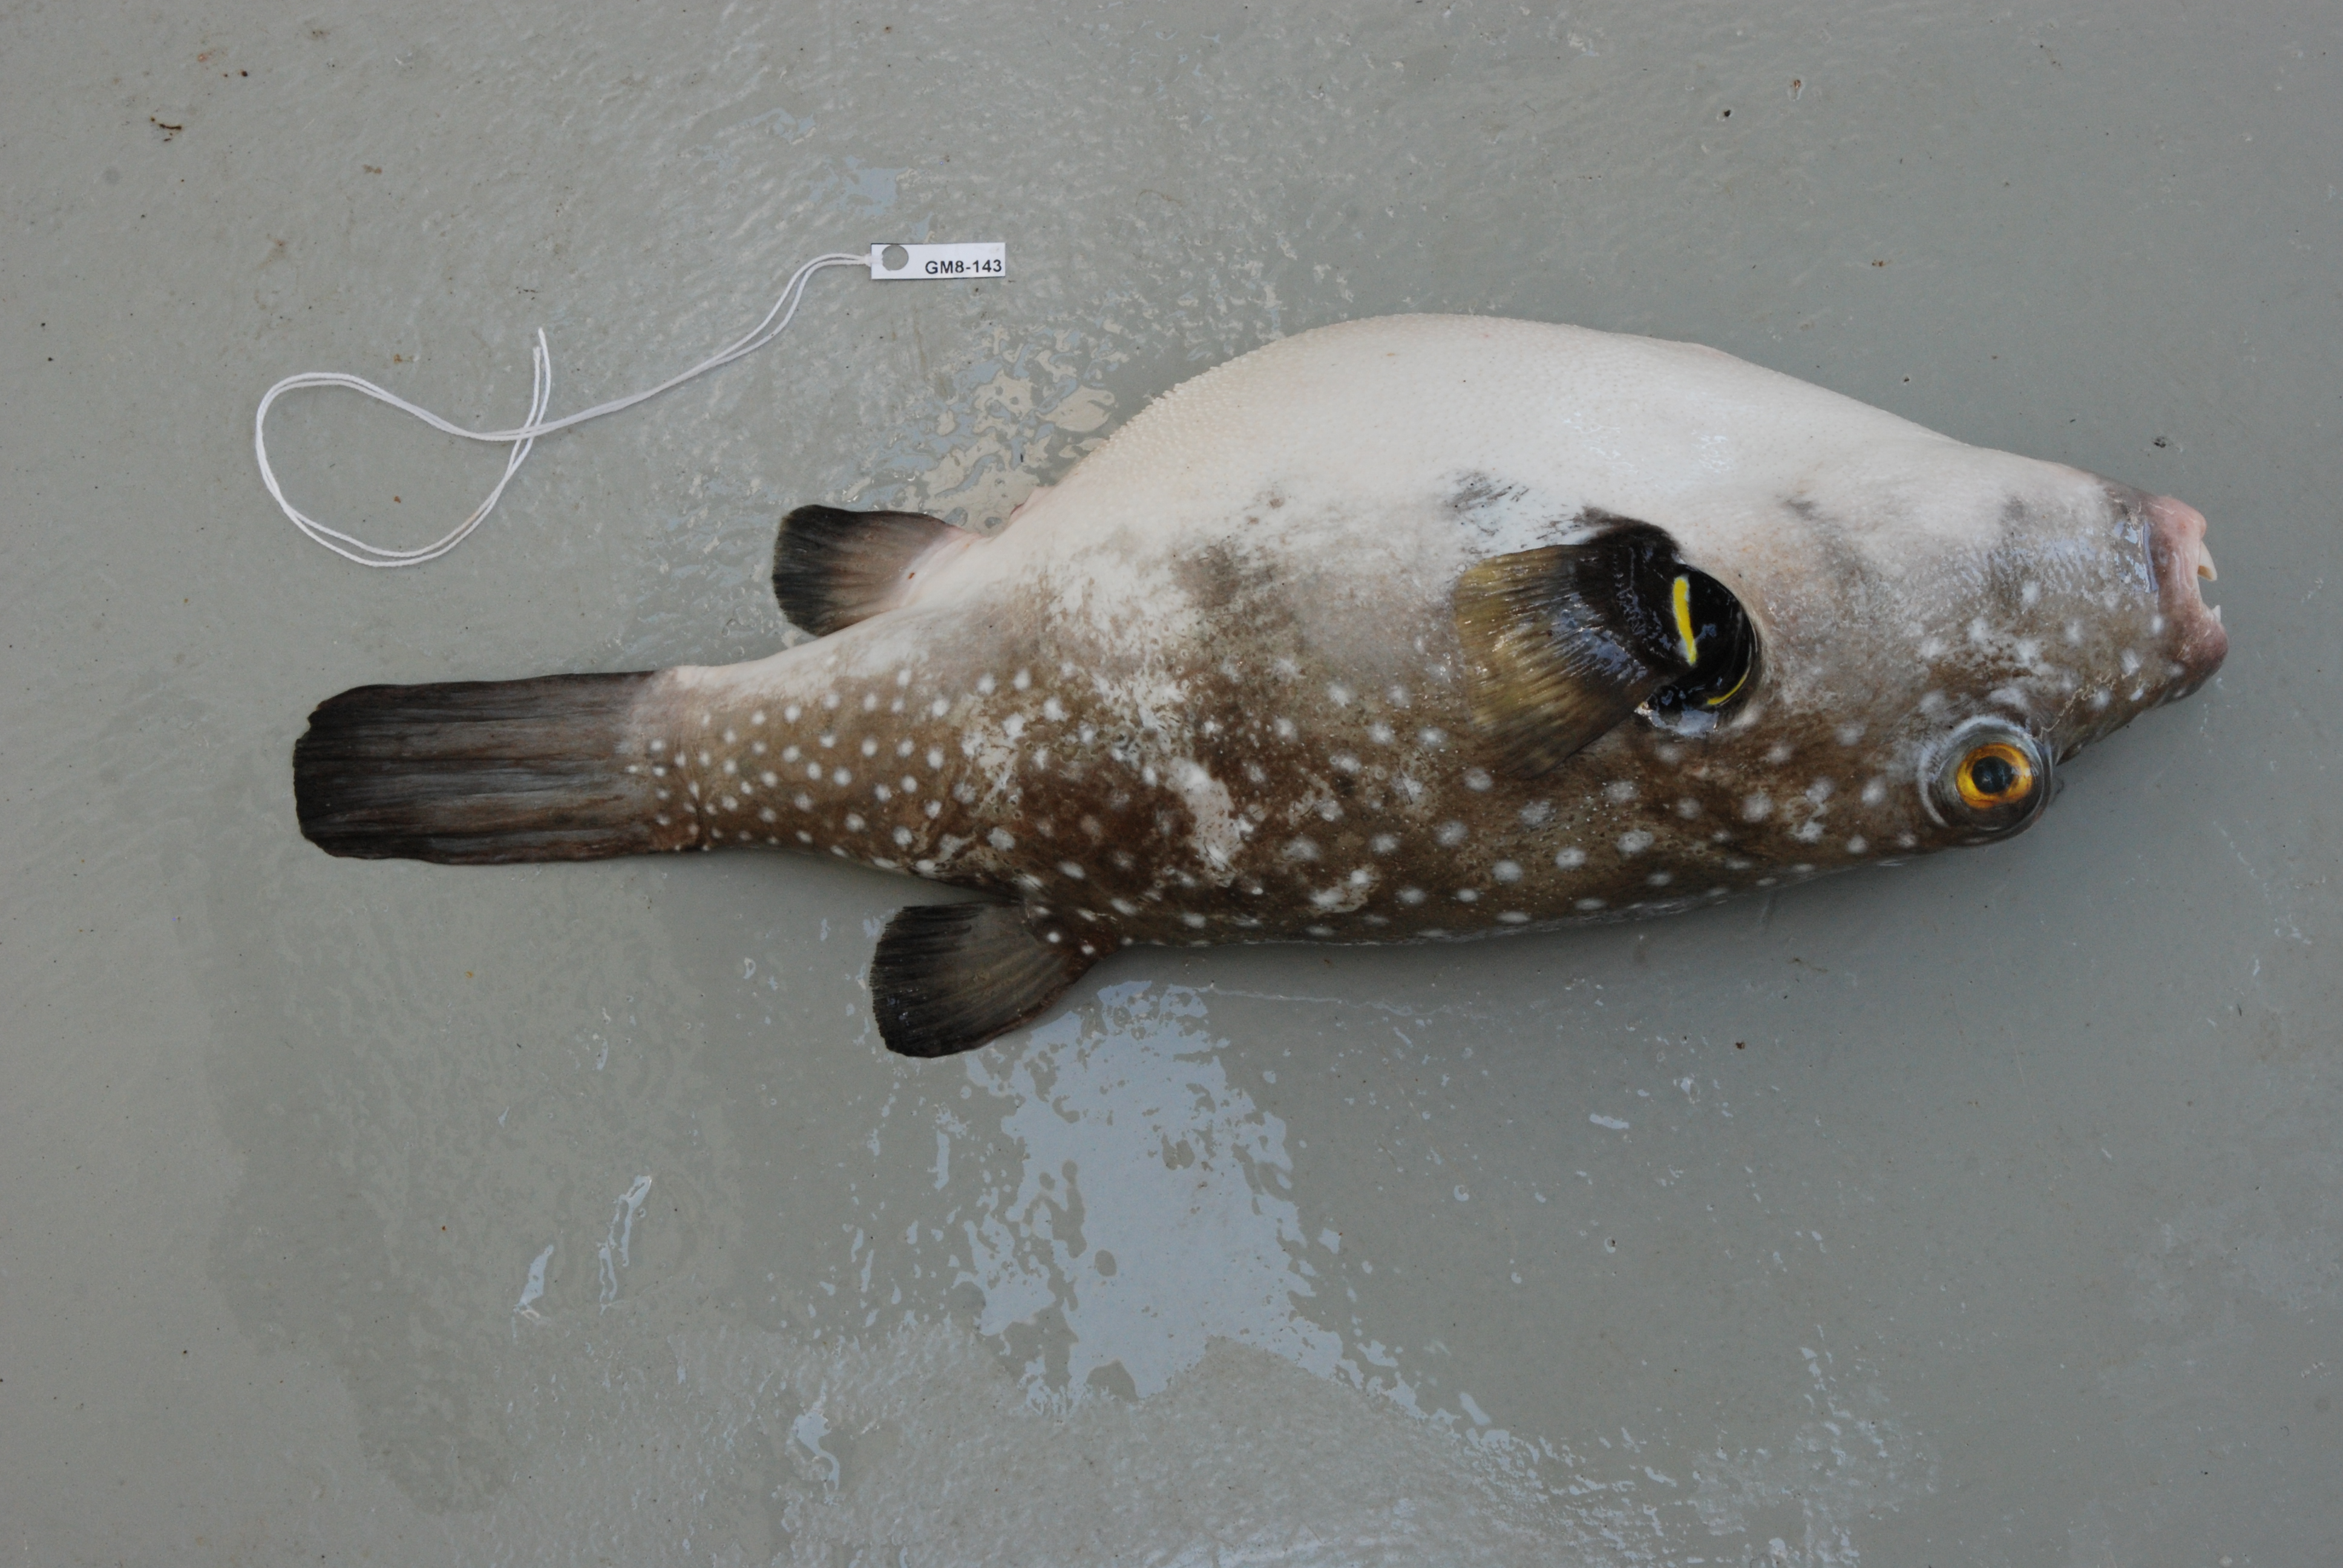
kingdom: Animalia
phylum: Chordata
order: Tetraodontiformes
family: Tetraodontidae
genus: Arothron
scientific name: Arothron hispidus
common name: Stripebelly puffer
